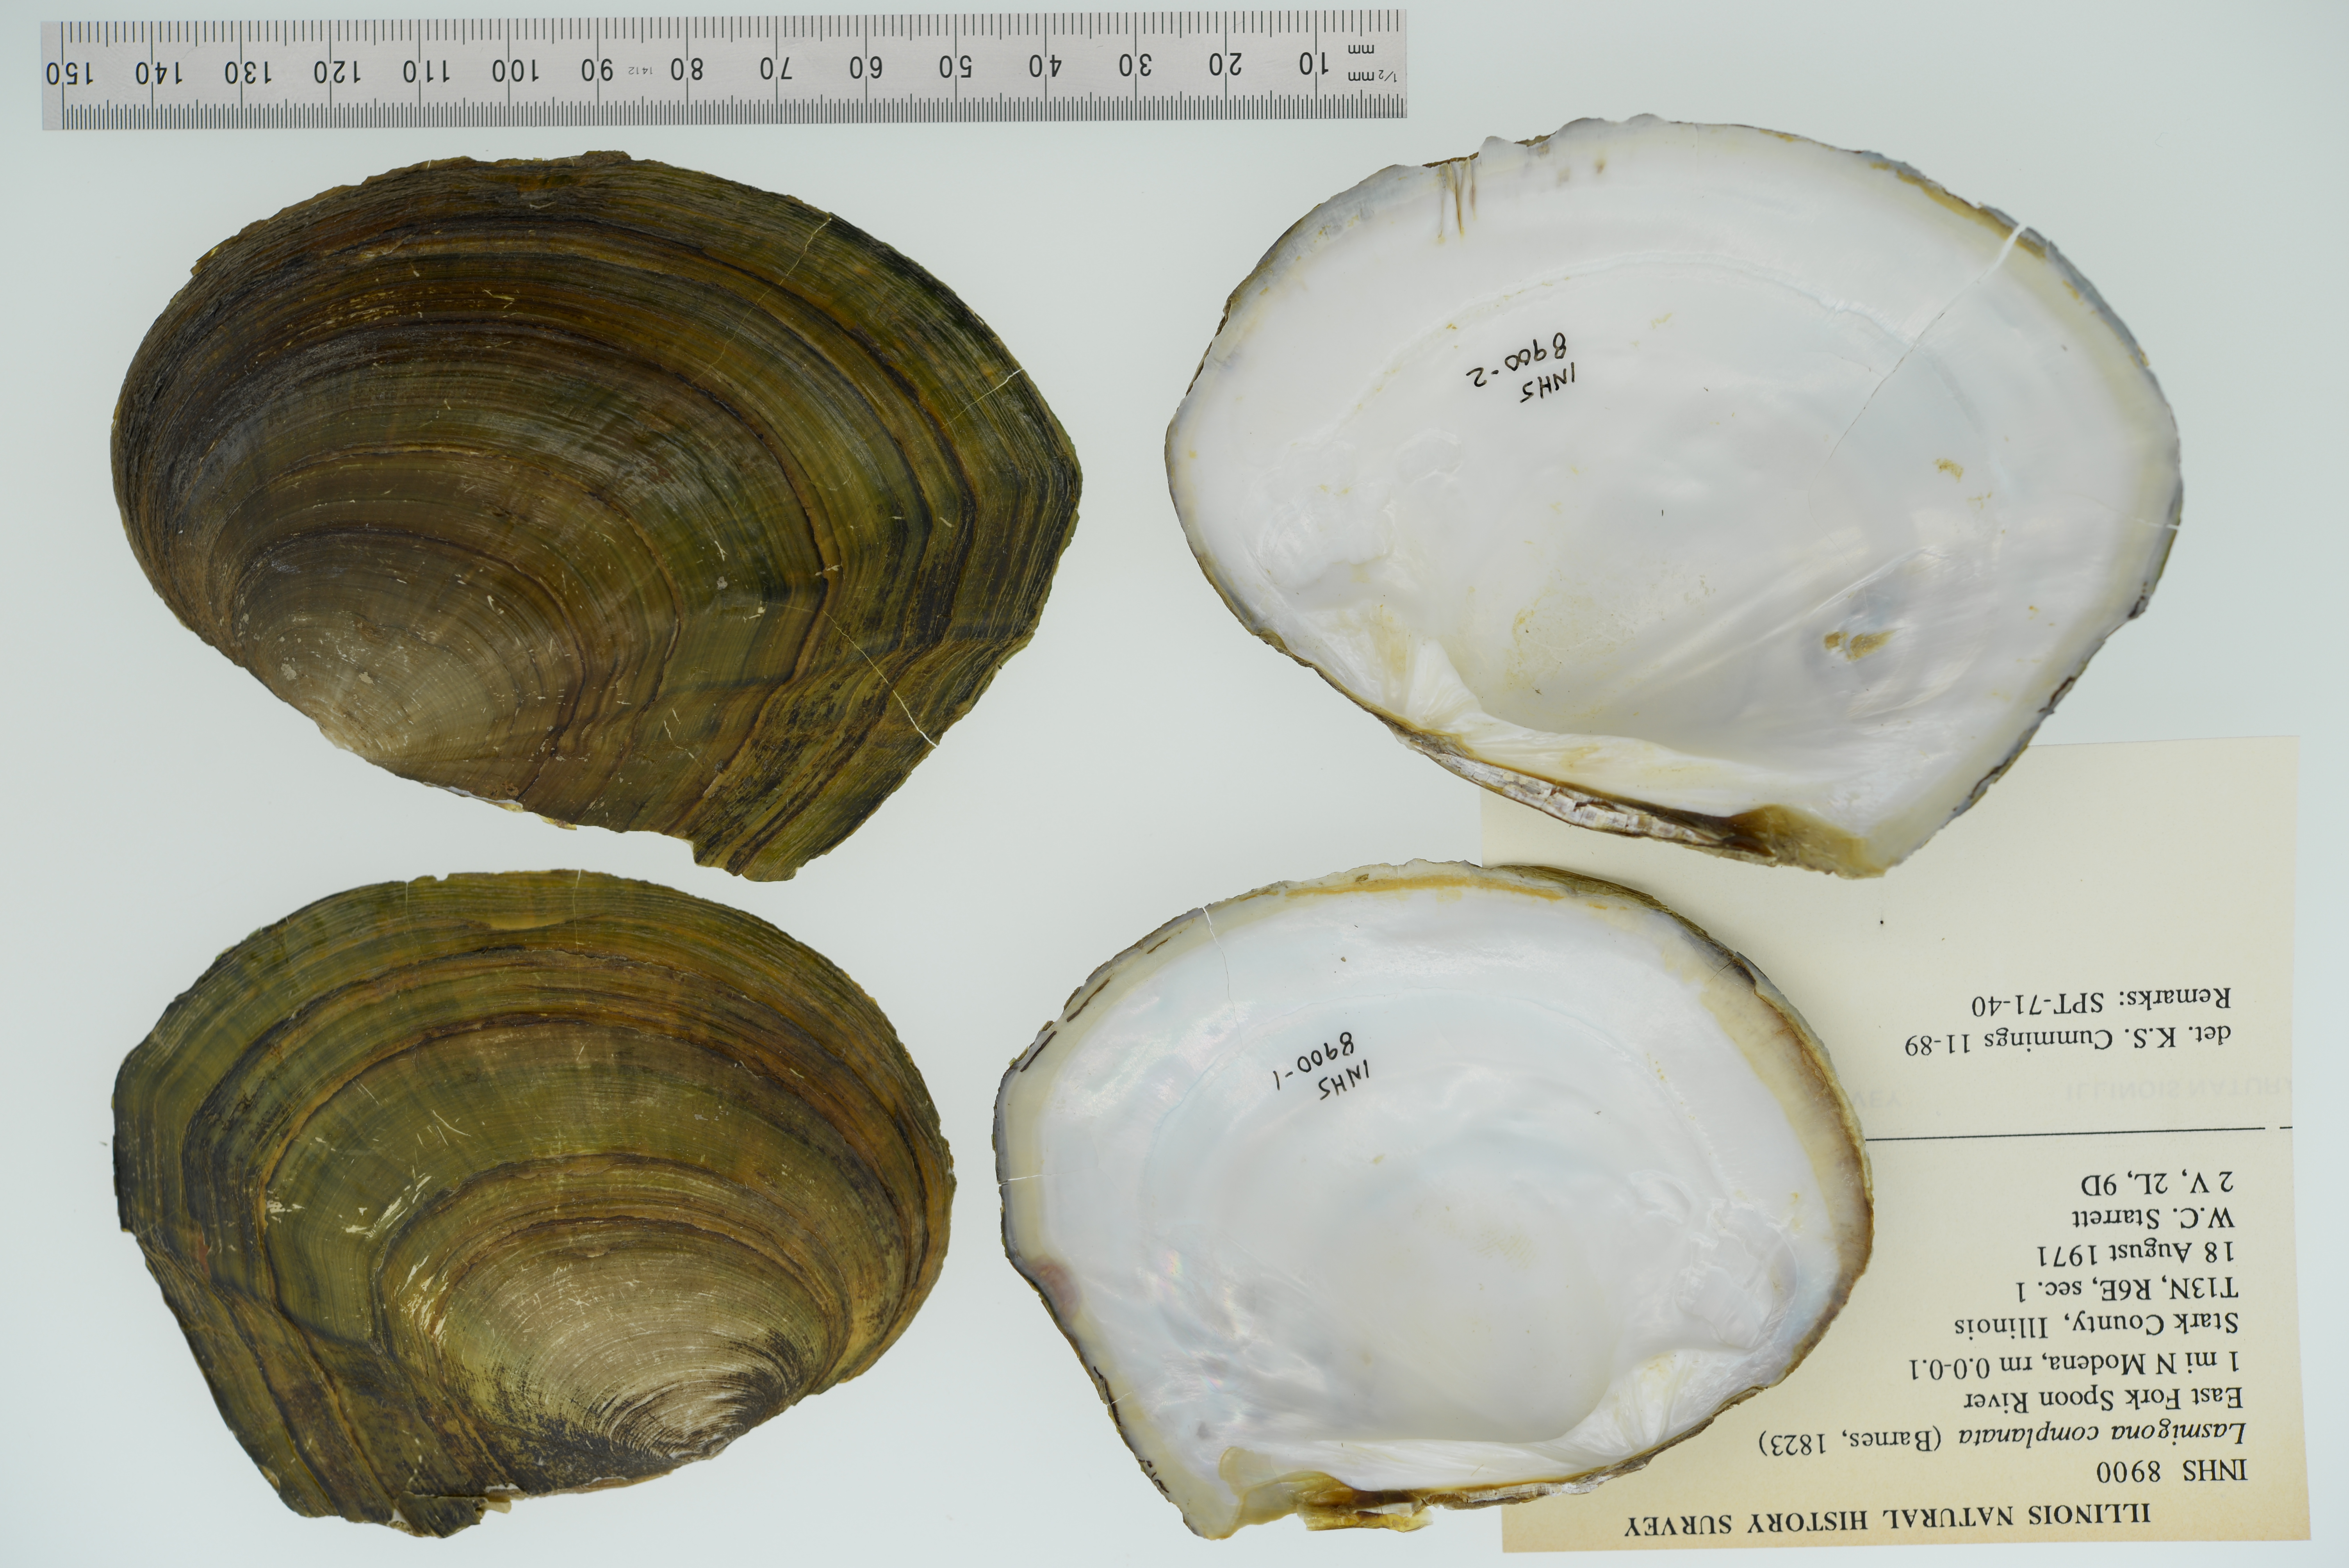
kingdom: Animalia
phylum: Mollusca
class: Bivalvia
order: Unionida
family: Unionidae
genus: Lasmigona
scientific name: Lasmigona complanata
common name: White heelsplitter
